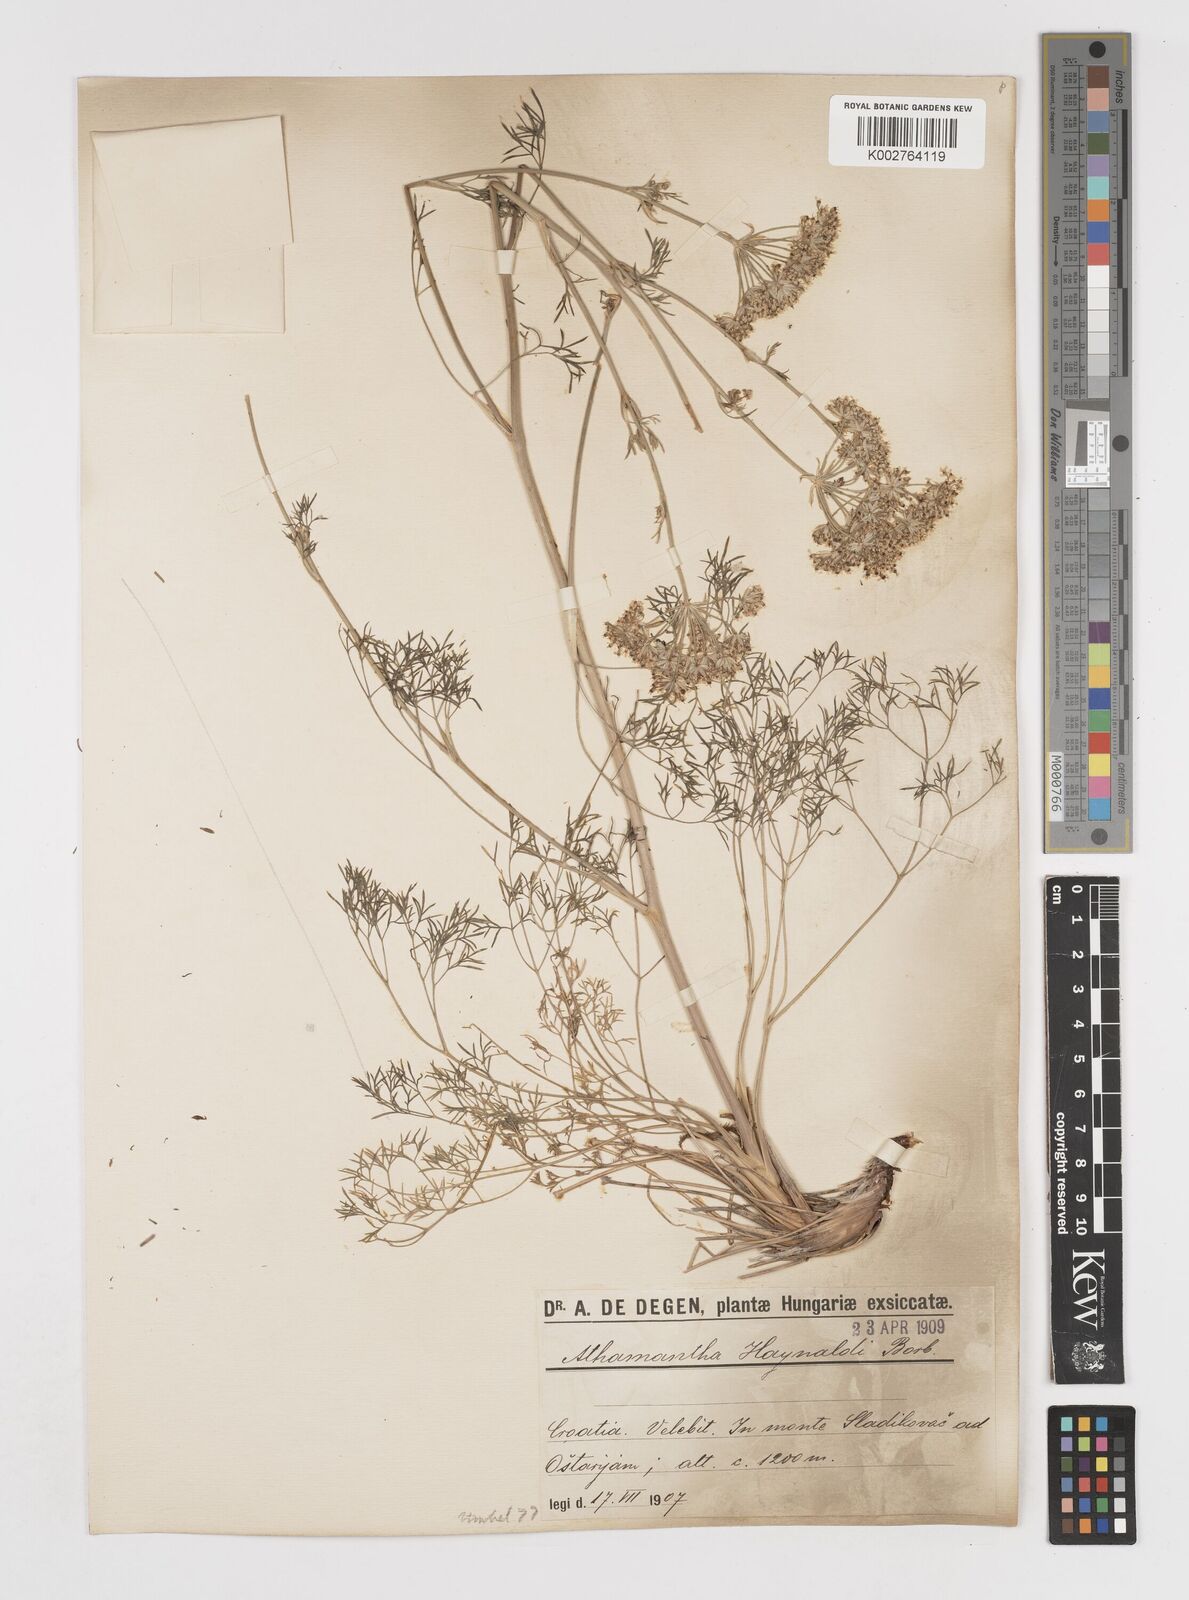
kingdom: Plantae
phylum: Tracheophyta
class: Magnoliopsida
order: Apiales
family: Apiaceae
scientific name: Apiaceae
